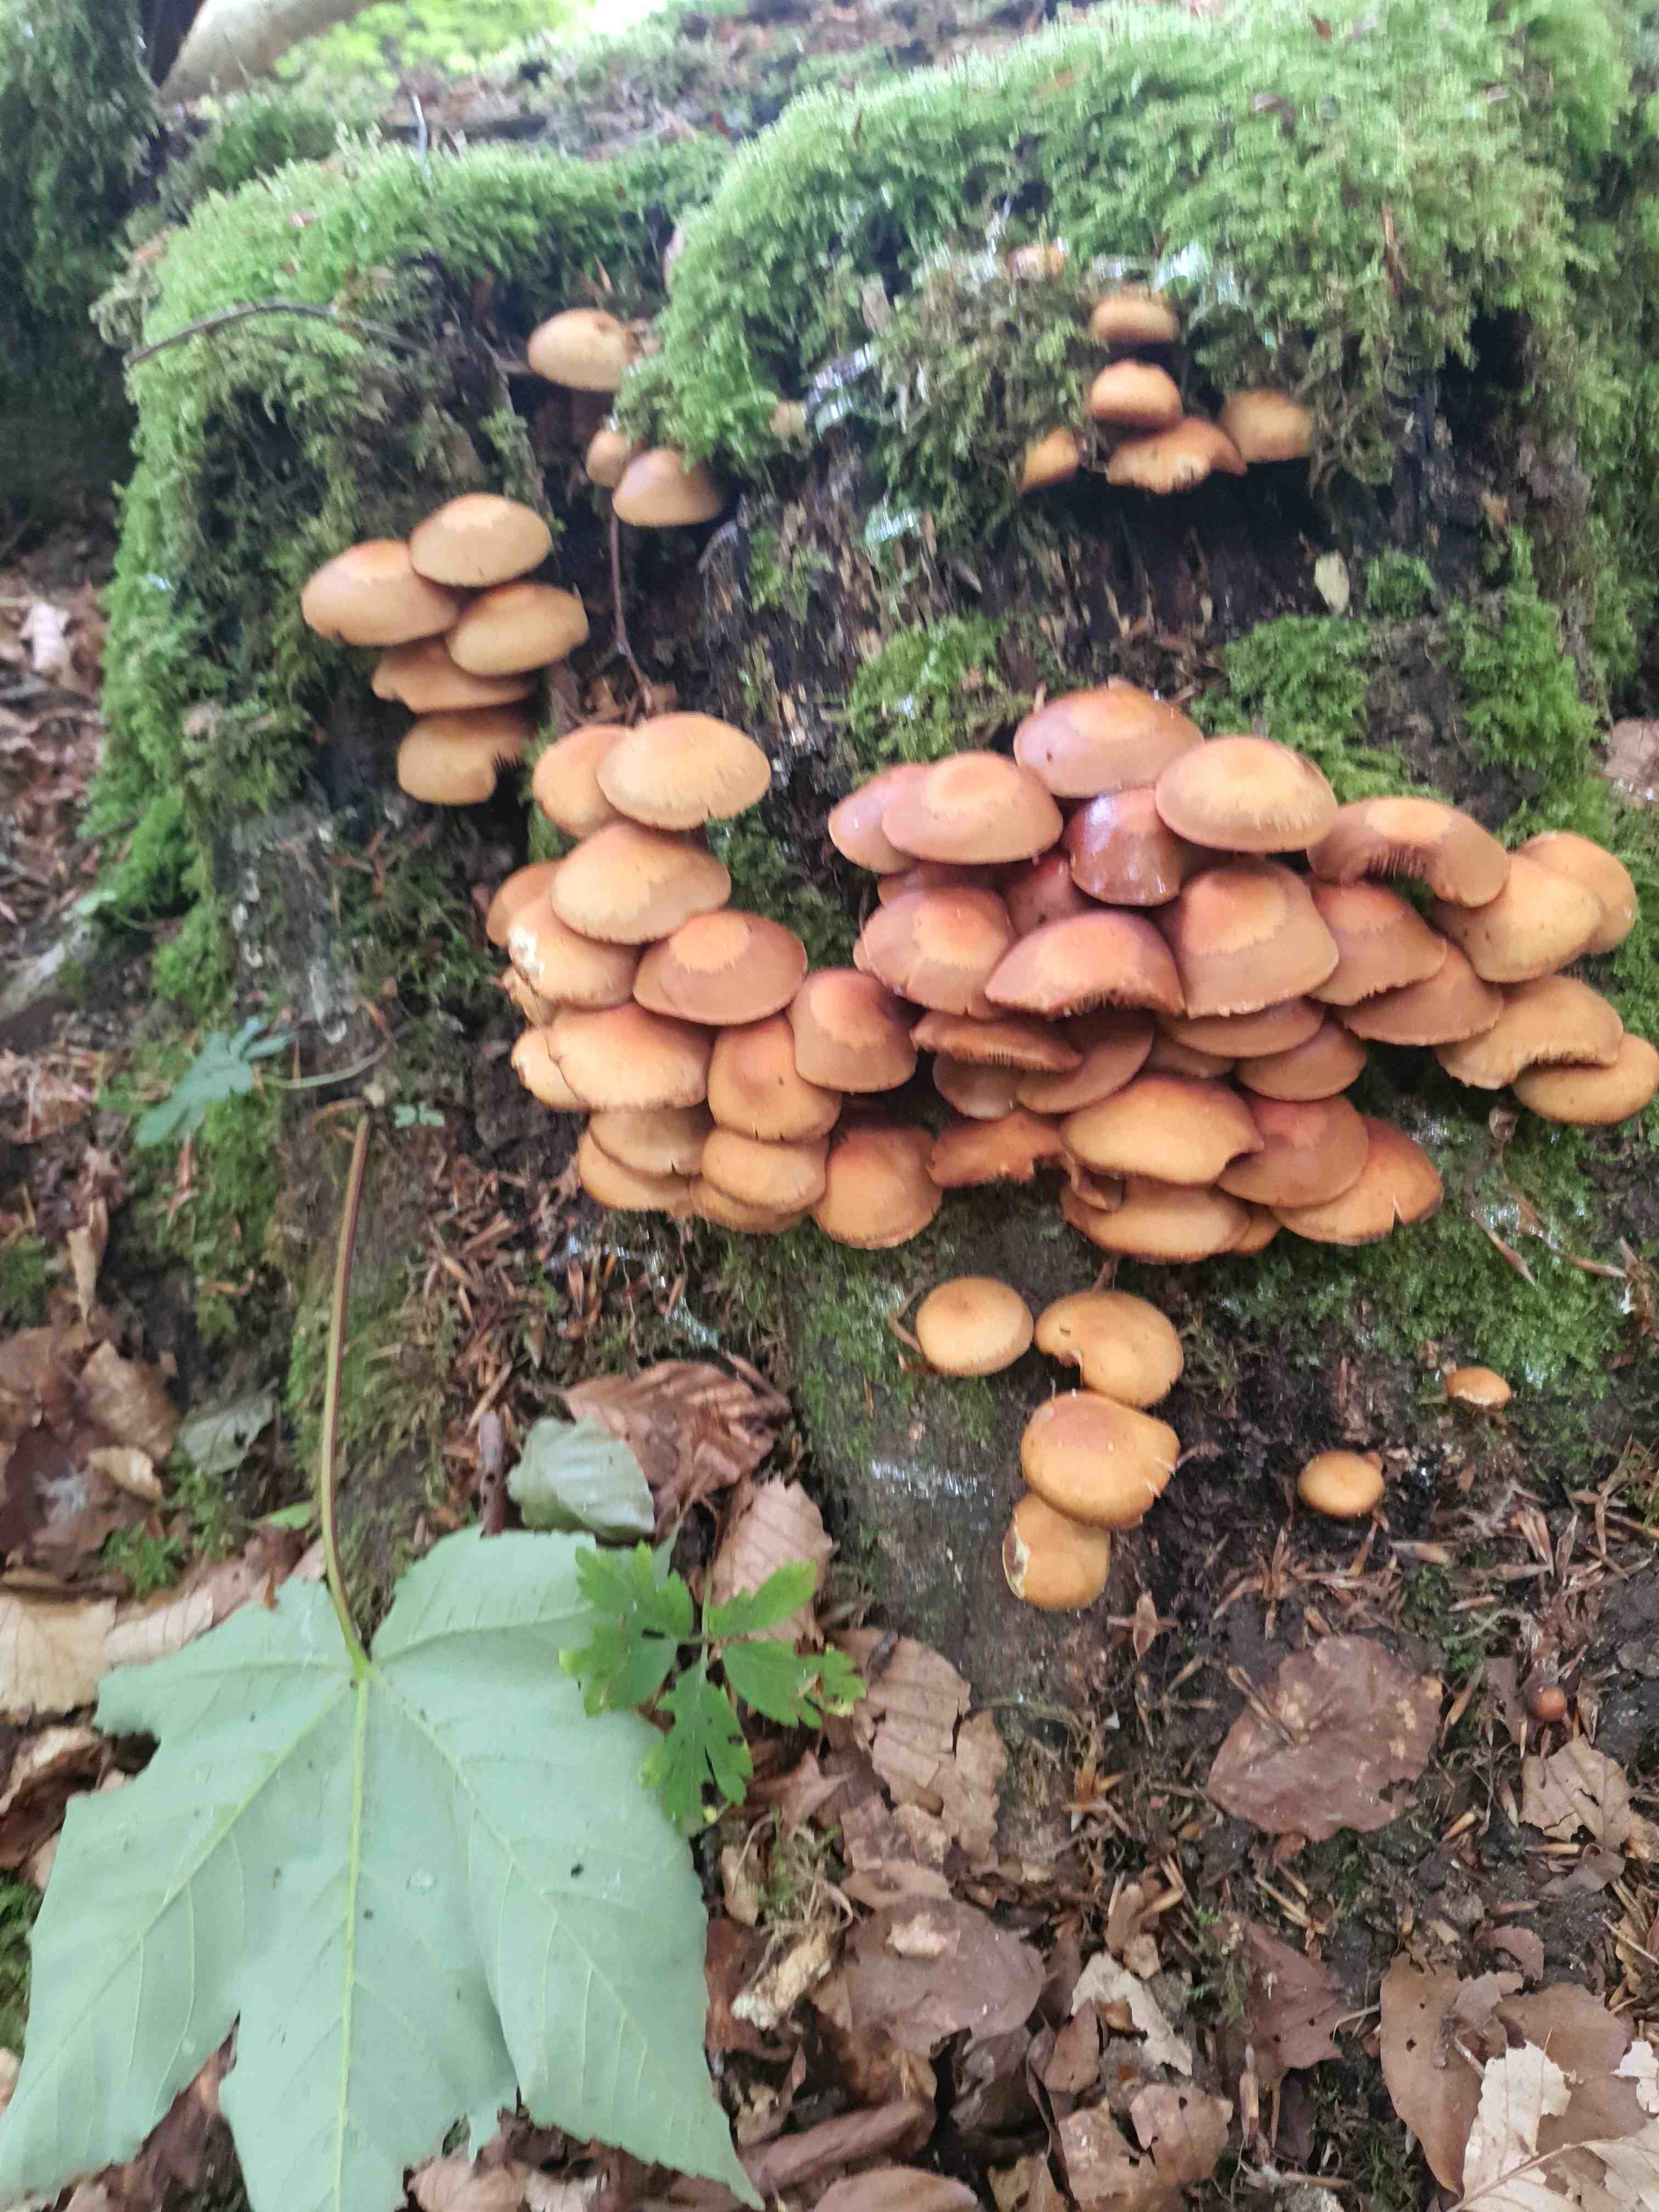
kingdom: Fungi
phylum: Basidiomycota
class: Agaricomycetes
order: Agaricales
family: Strophariaceae
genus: Kuehneromyces
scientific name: Kuehneromyces mutabilis
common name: foranderlig skælhat
